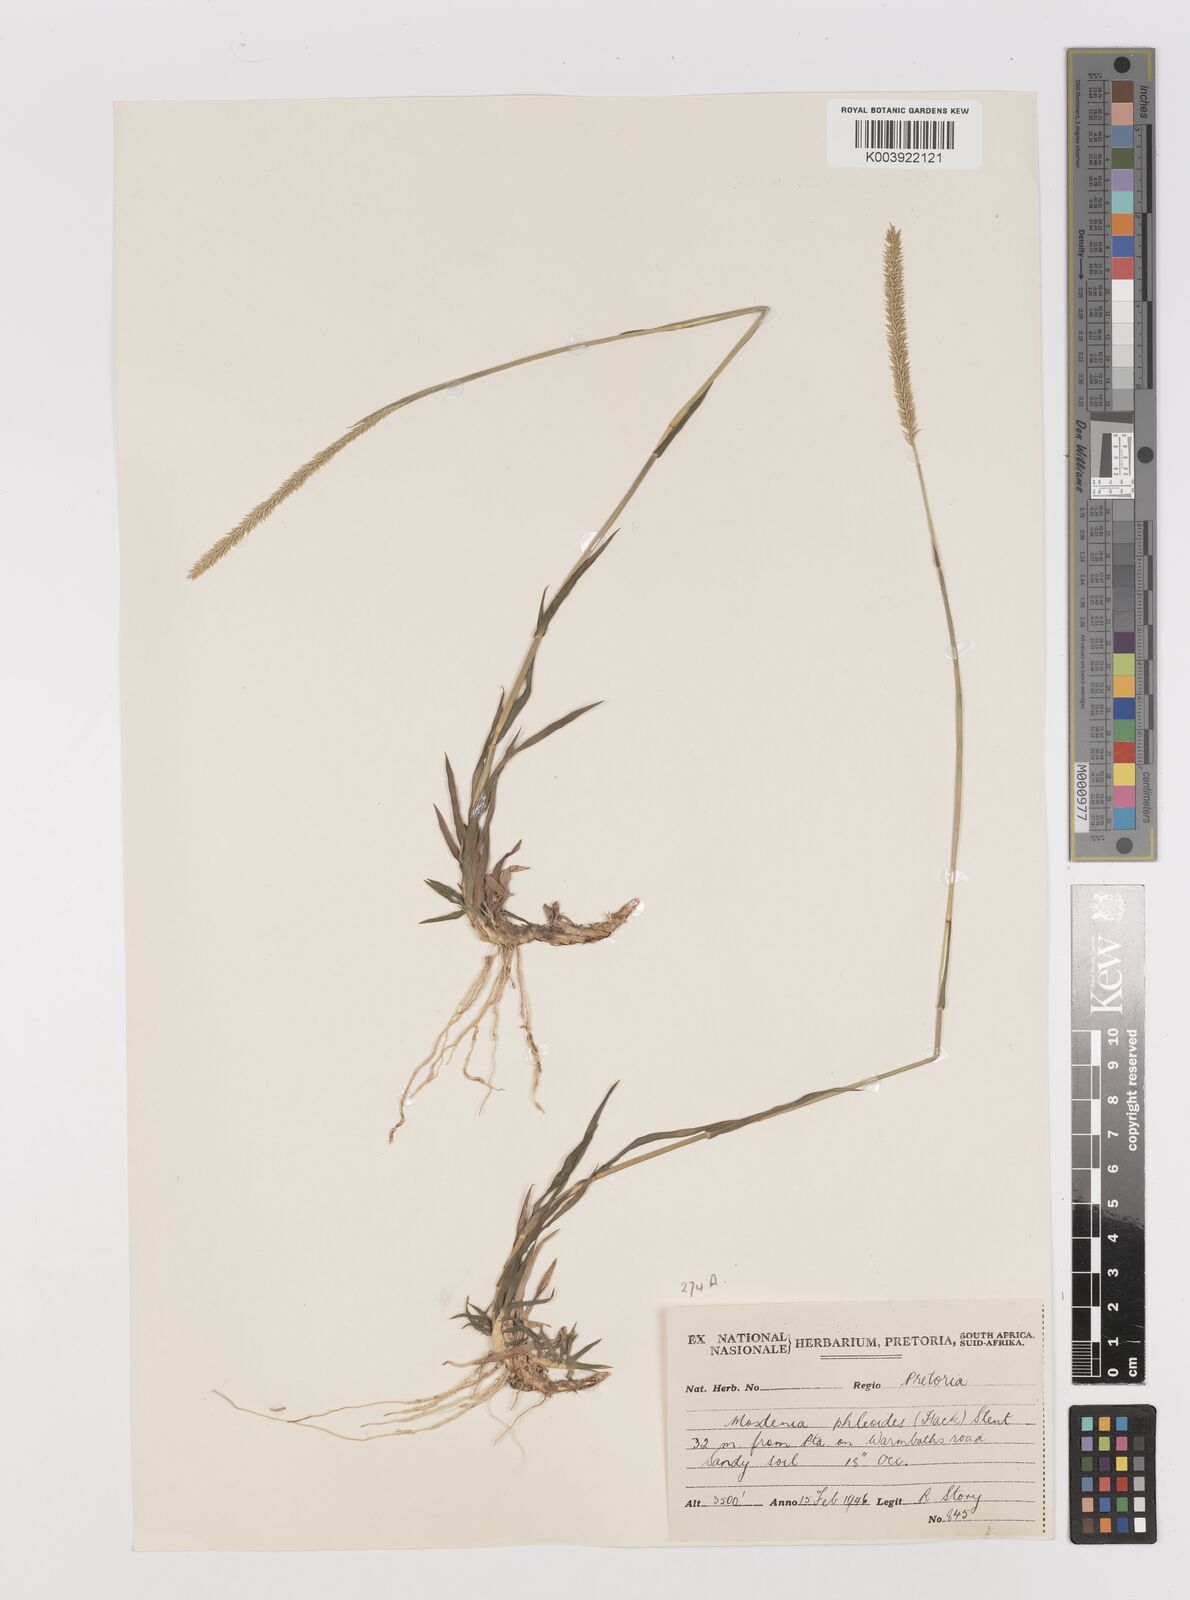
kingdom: Plantae
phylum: Tracheophyta
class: Liliopsida
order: Poales
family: Poaceae
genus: Mosdenia
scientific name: Mosdenia leptostachys
